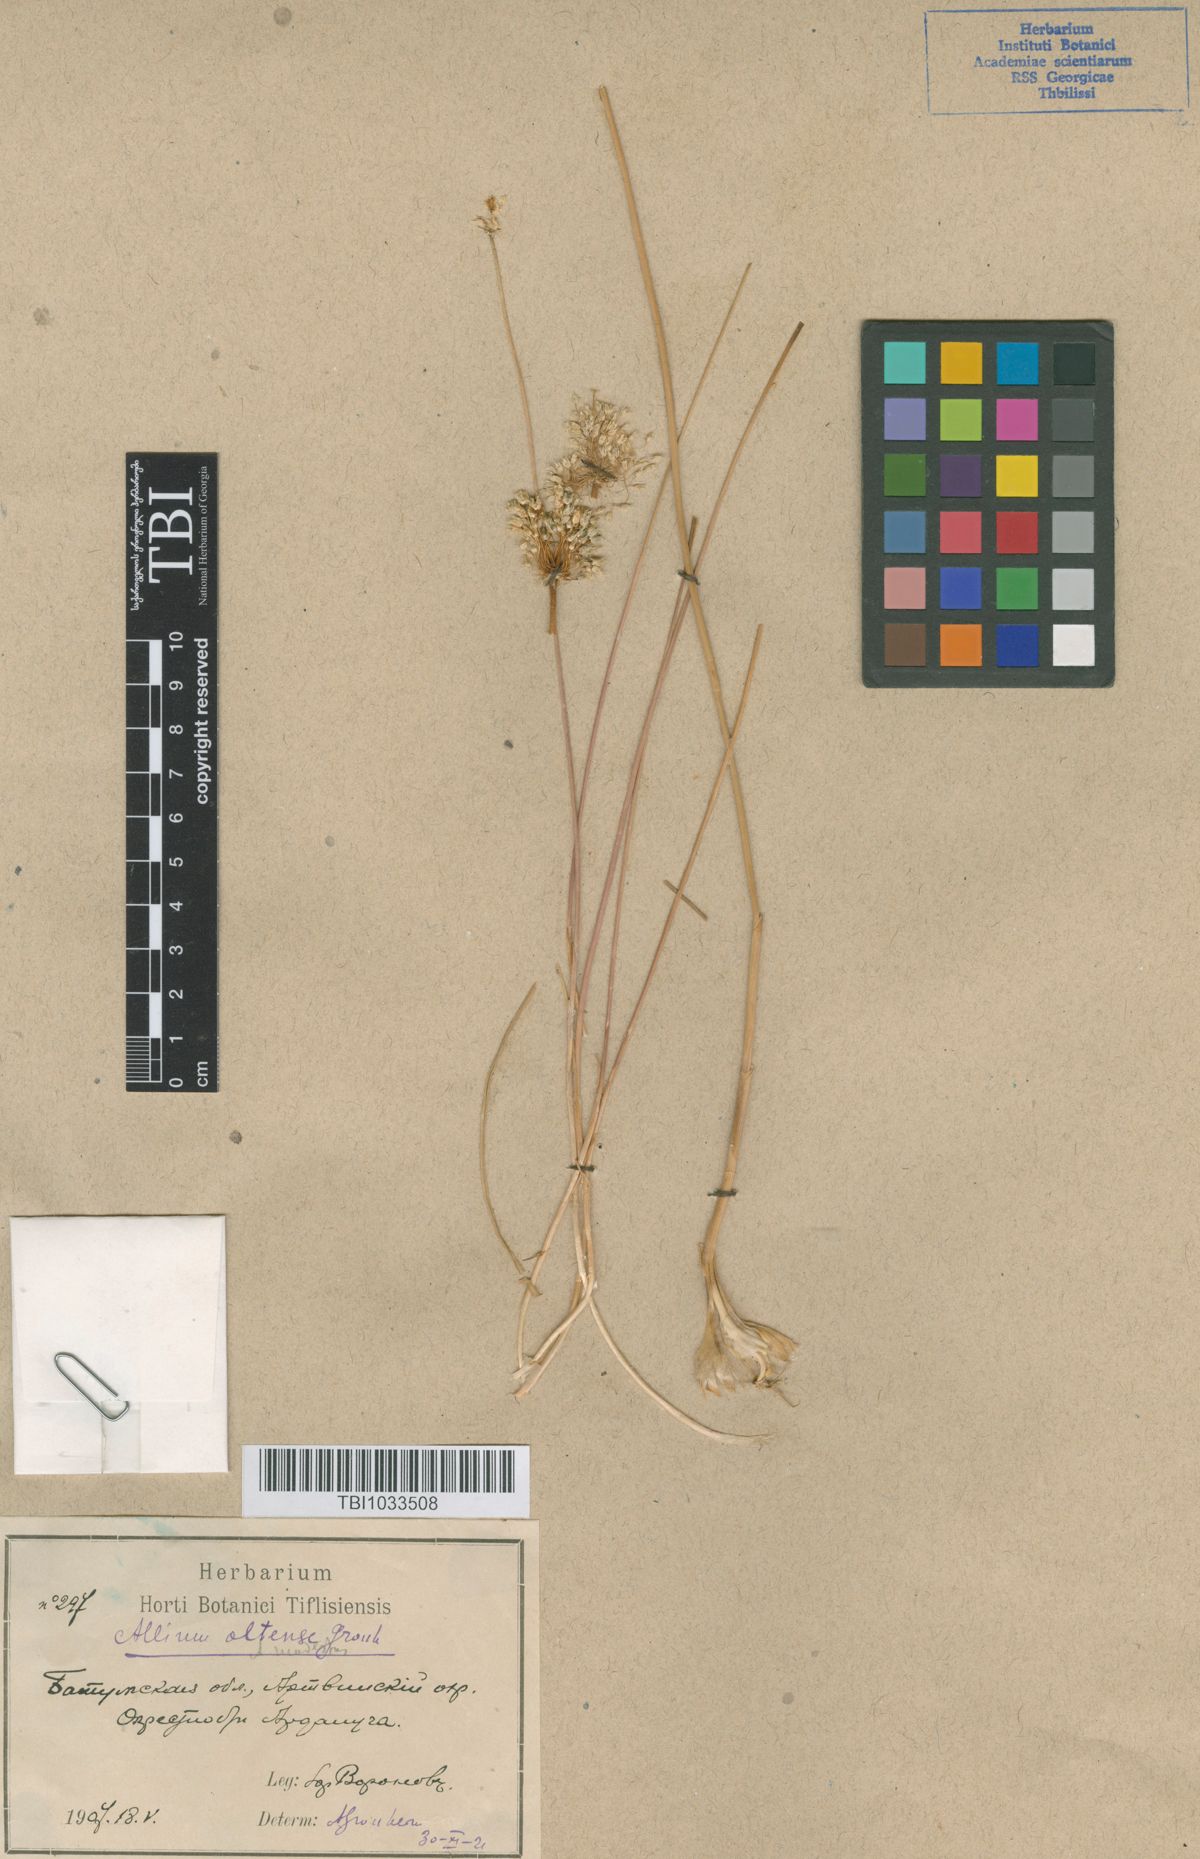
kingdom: Plantae
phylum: Tracheophyta
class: Liliopsida
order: Asparagales
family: Amaryllidaceae
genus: Allium
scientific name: Allium oltense
